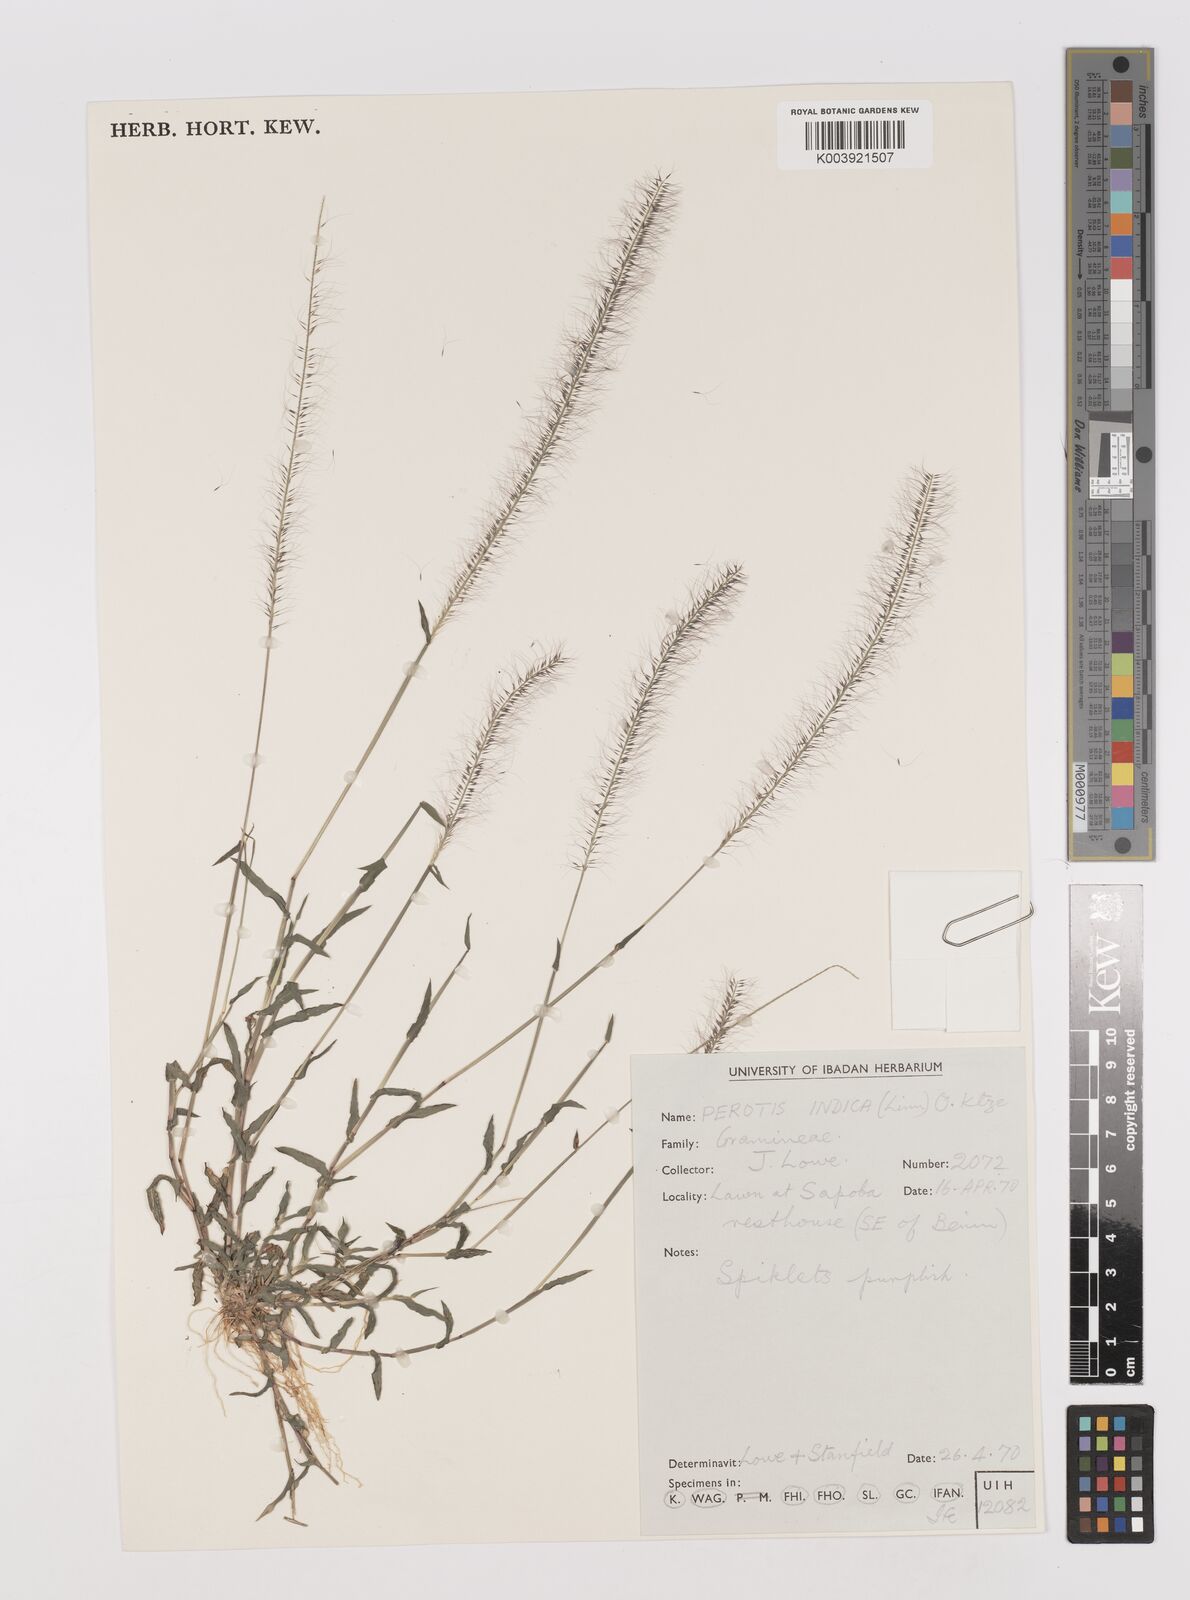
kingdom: Plantae
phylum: Tracheophyta
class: Liliopsida
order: Poales
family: Poaceae
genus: Perotis
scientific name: Perotis indica
